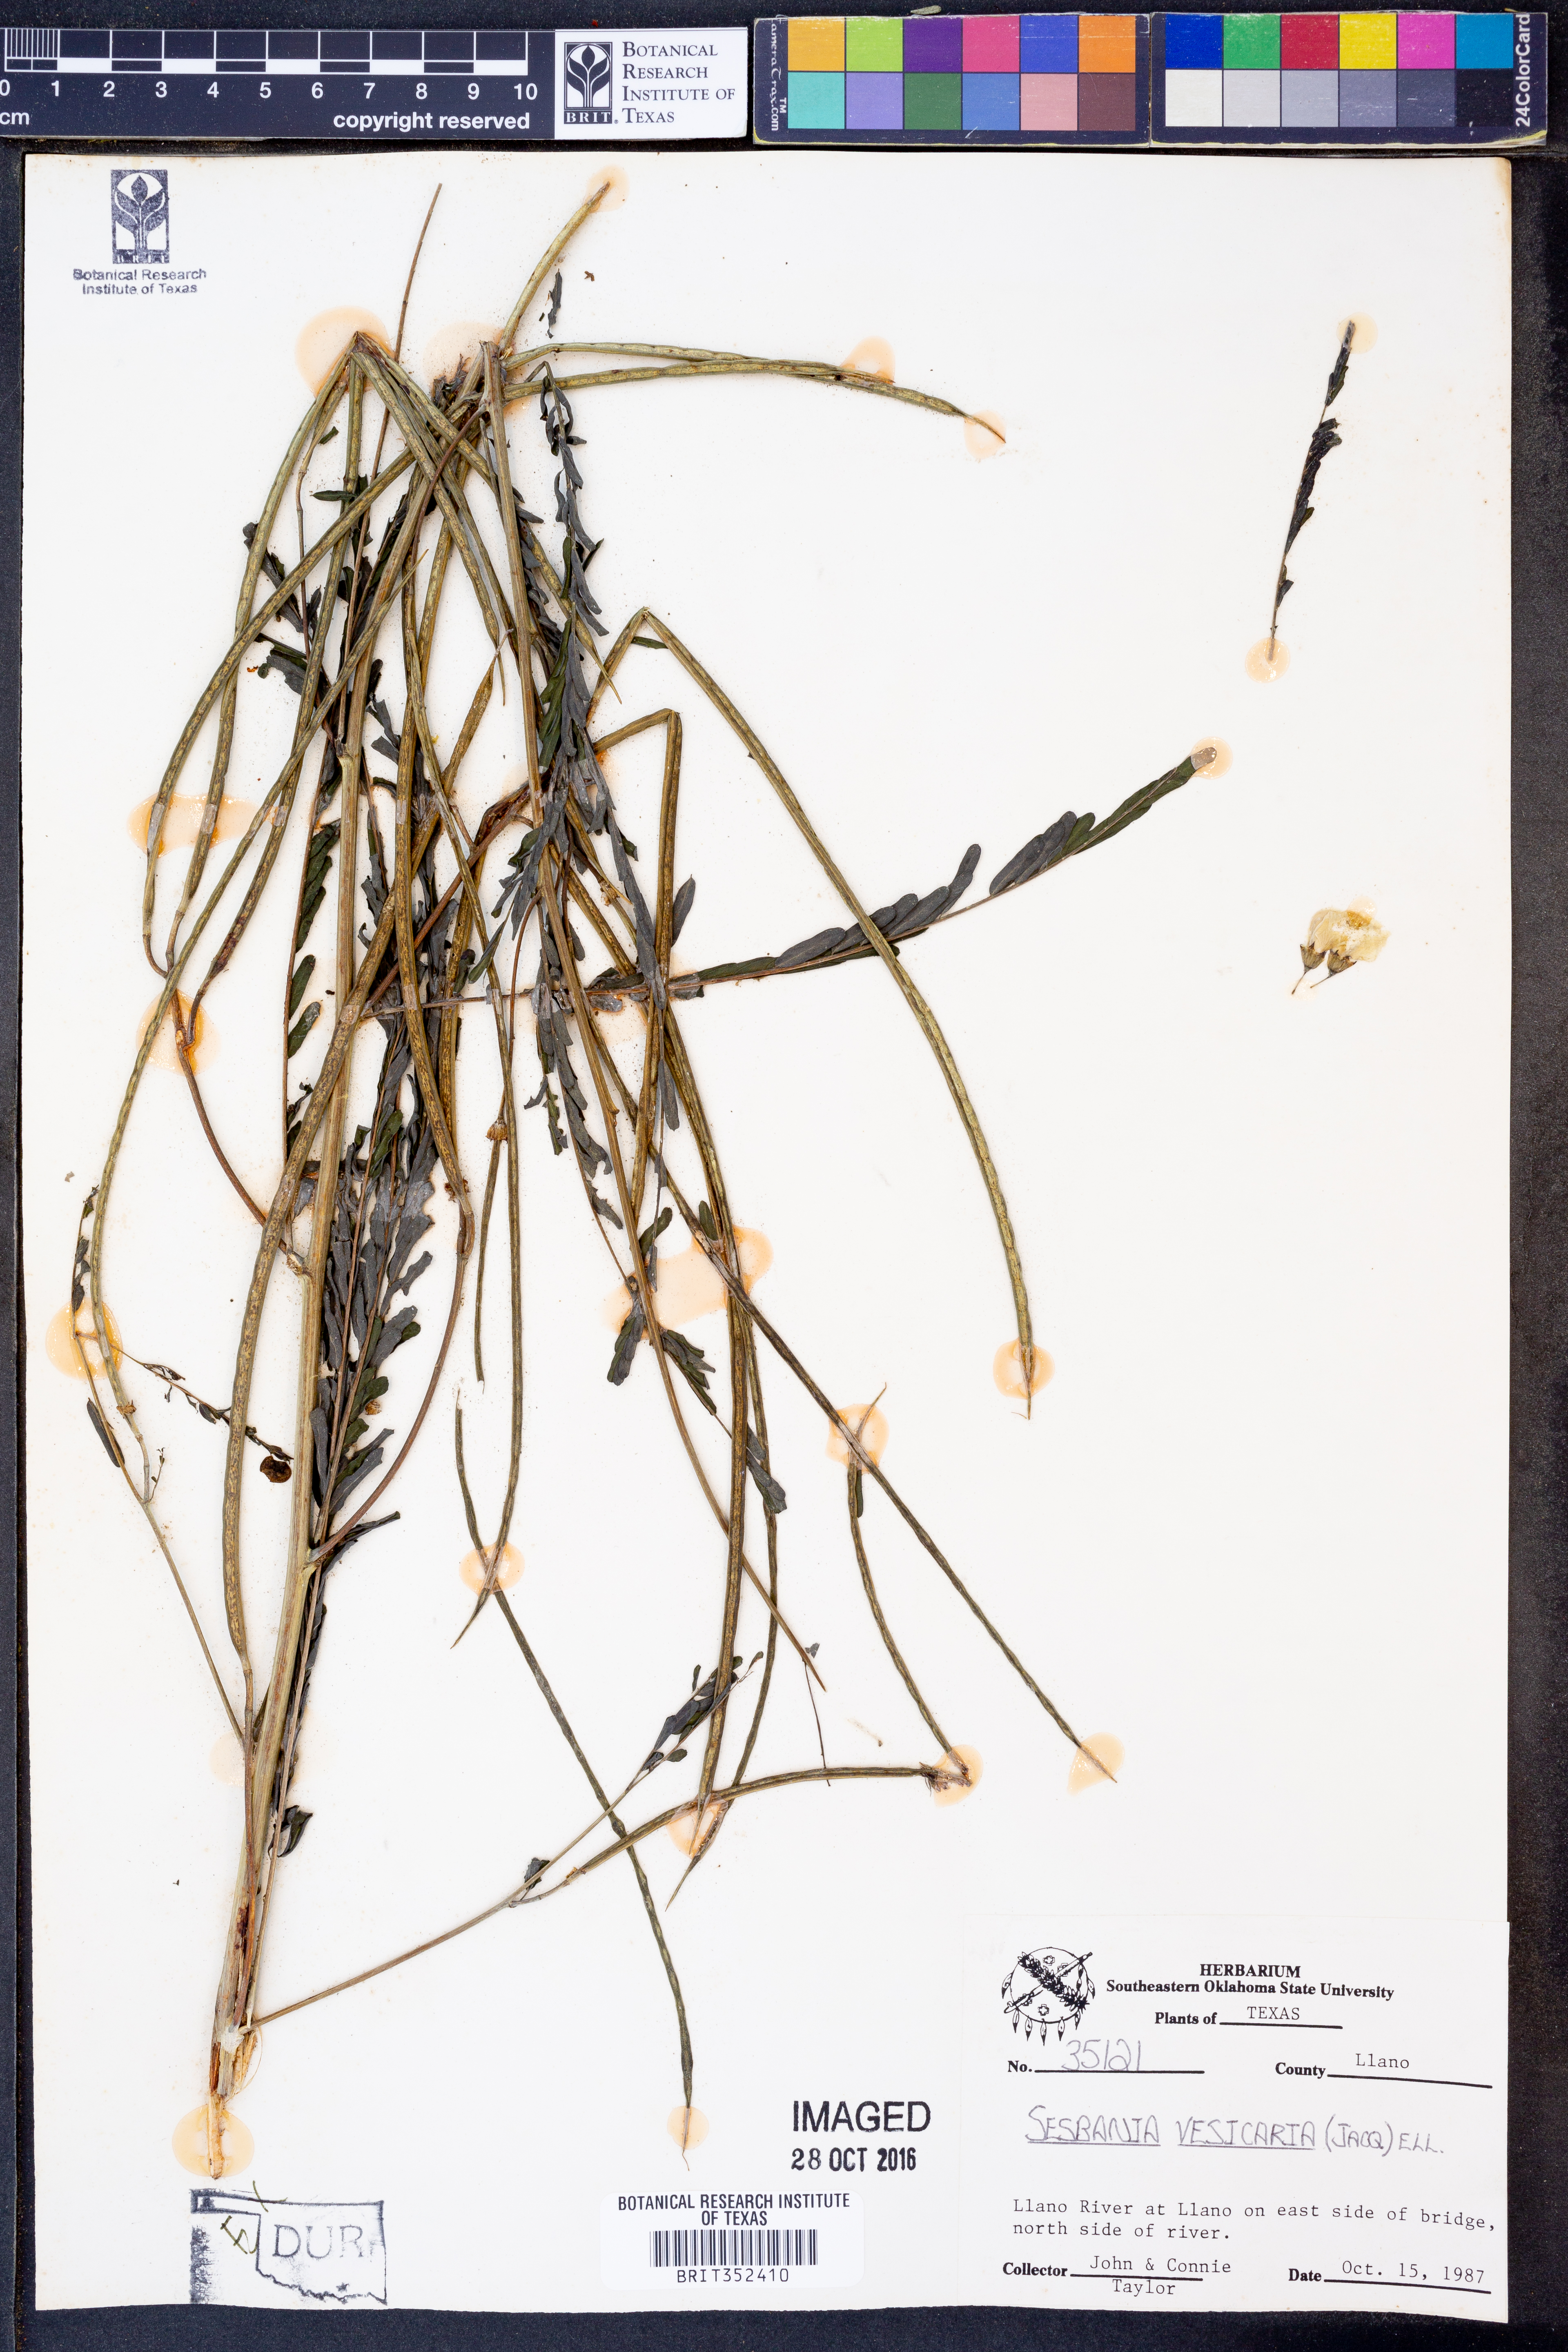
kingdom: Plantae
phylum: Tracheophyta
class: Magnoliopsida
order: Fabales
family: Fabaceae
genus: Sesbania
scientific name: Sesbania vesicaria
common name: Bagpod
